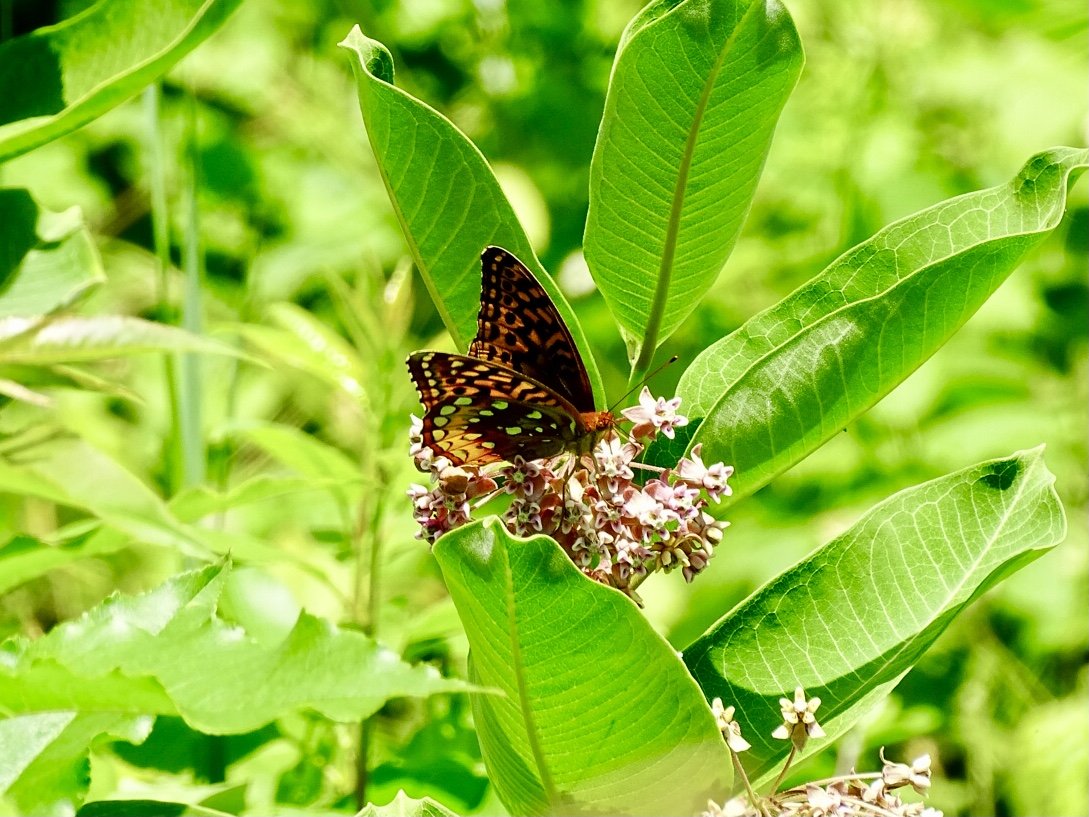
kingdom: Animalia
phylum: Arthropoda
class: Insecta
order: Lepidoptera
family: Nymphalidae
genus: Speyeria
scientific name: Speyeria cybele
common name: Great Spangled Fritillary
